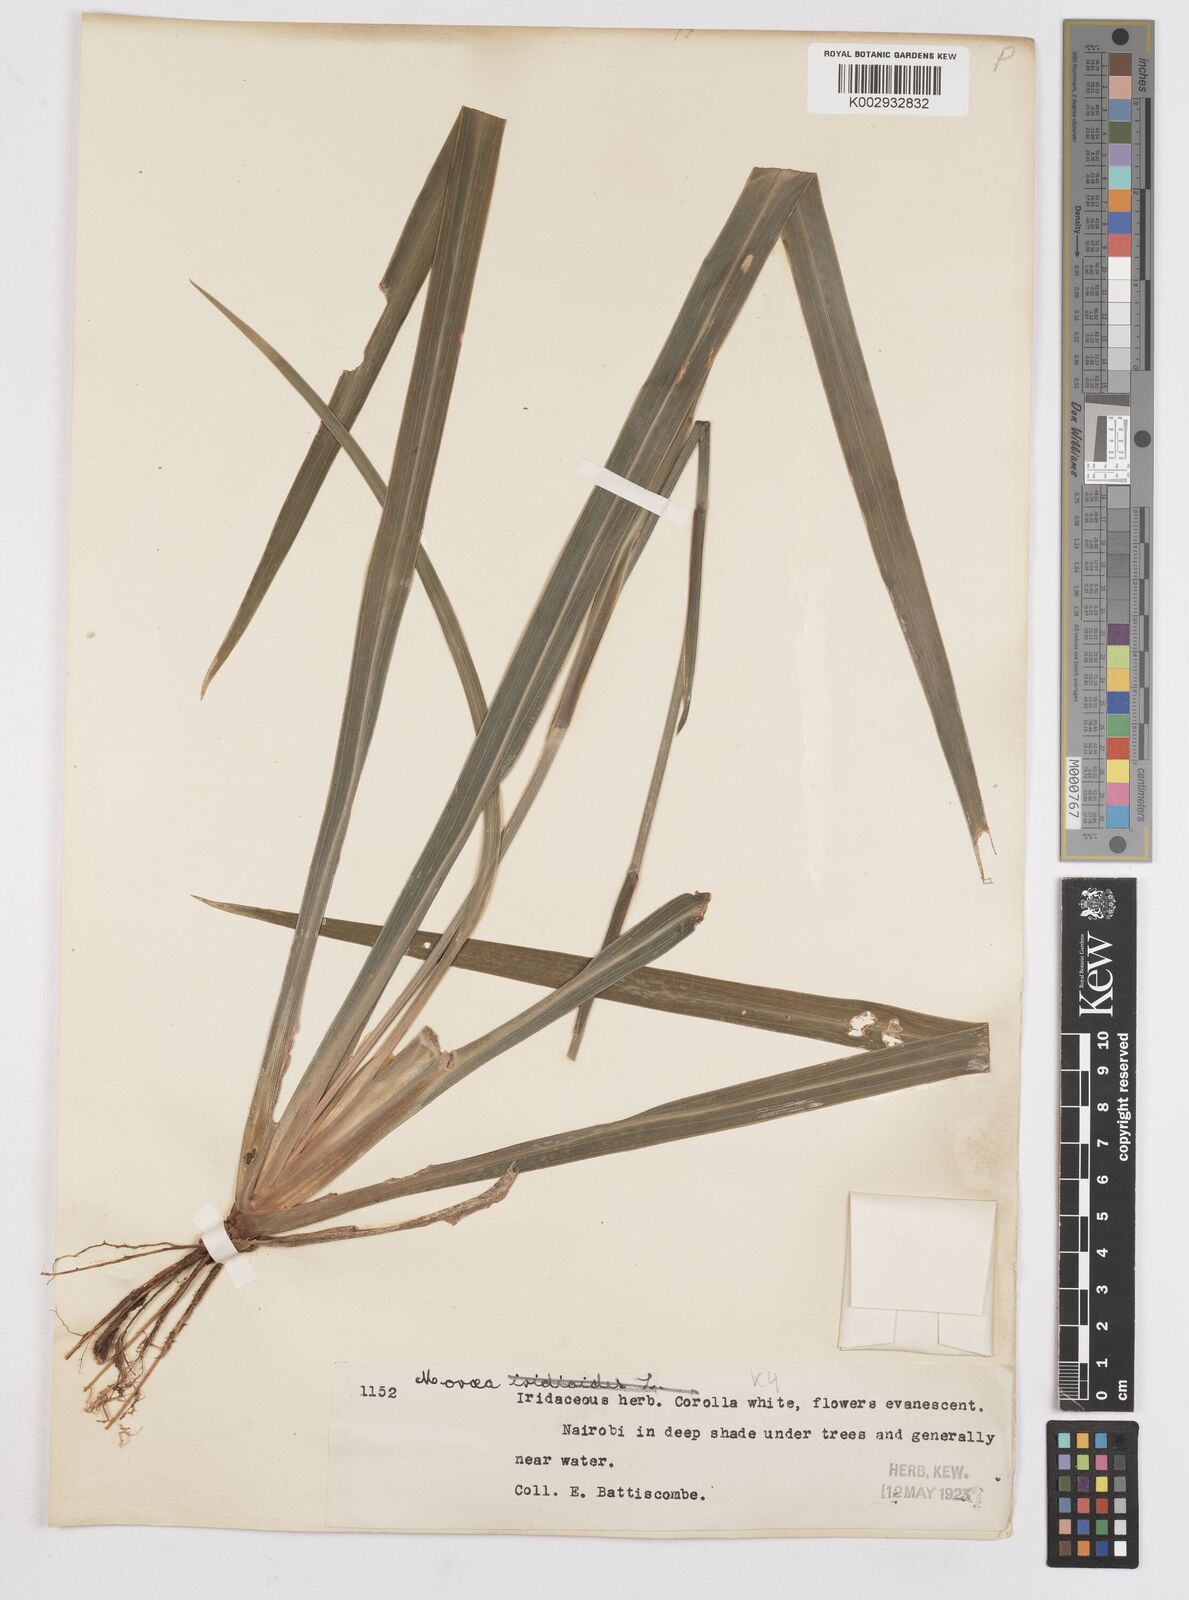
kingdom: Plantae
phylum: Tracheophyta
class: Liliopsida
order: Asparagales
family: Iridaceae
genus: Dietes
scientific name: Dietes iridioides
